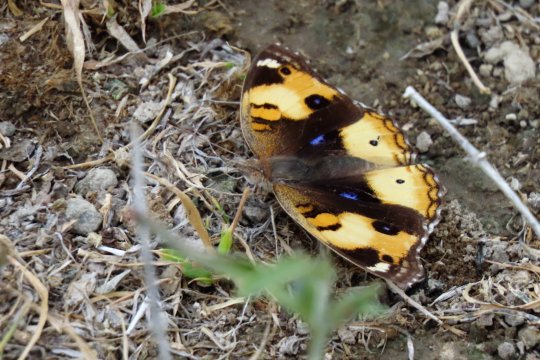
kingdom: Animalia
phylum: Arthropoda
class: Insecta
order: Lepidoptera
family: Nymphalidae
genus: Junonia
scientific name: Junonia hierta
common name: Yellow Pansy
